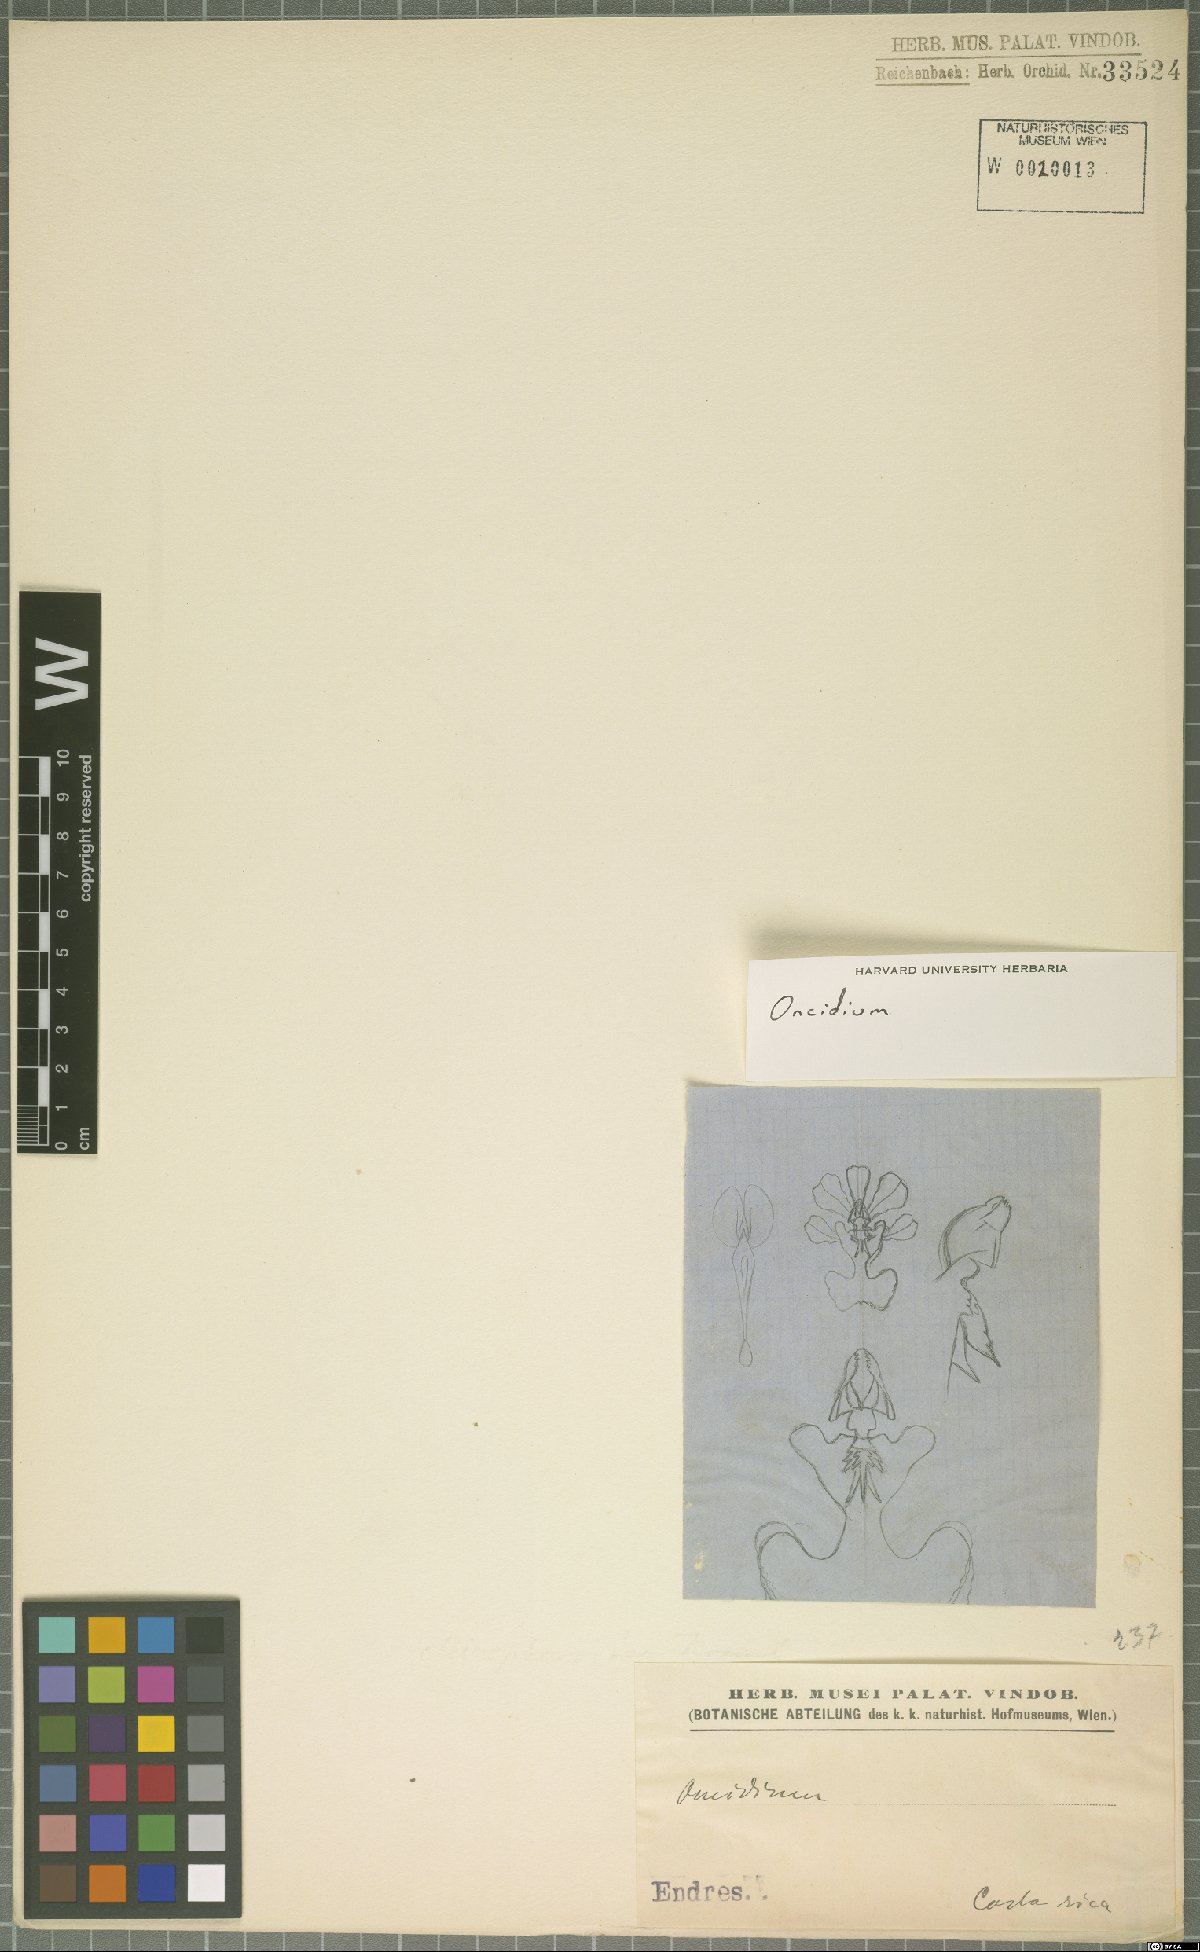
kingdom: Plantae
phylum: Tracheophyta
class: Liliopsida
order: Asparagales
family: Orchidaceae
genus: Oncidium
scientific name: Oncidium
